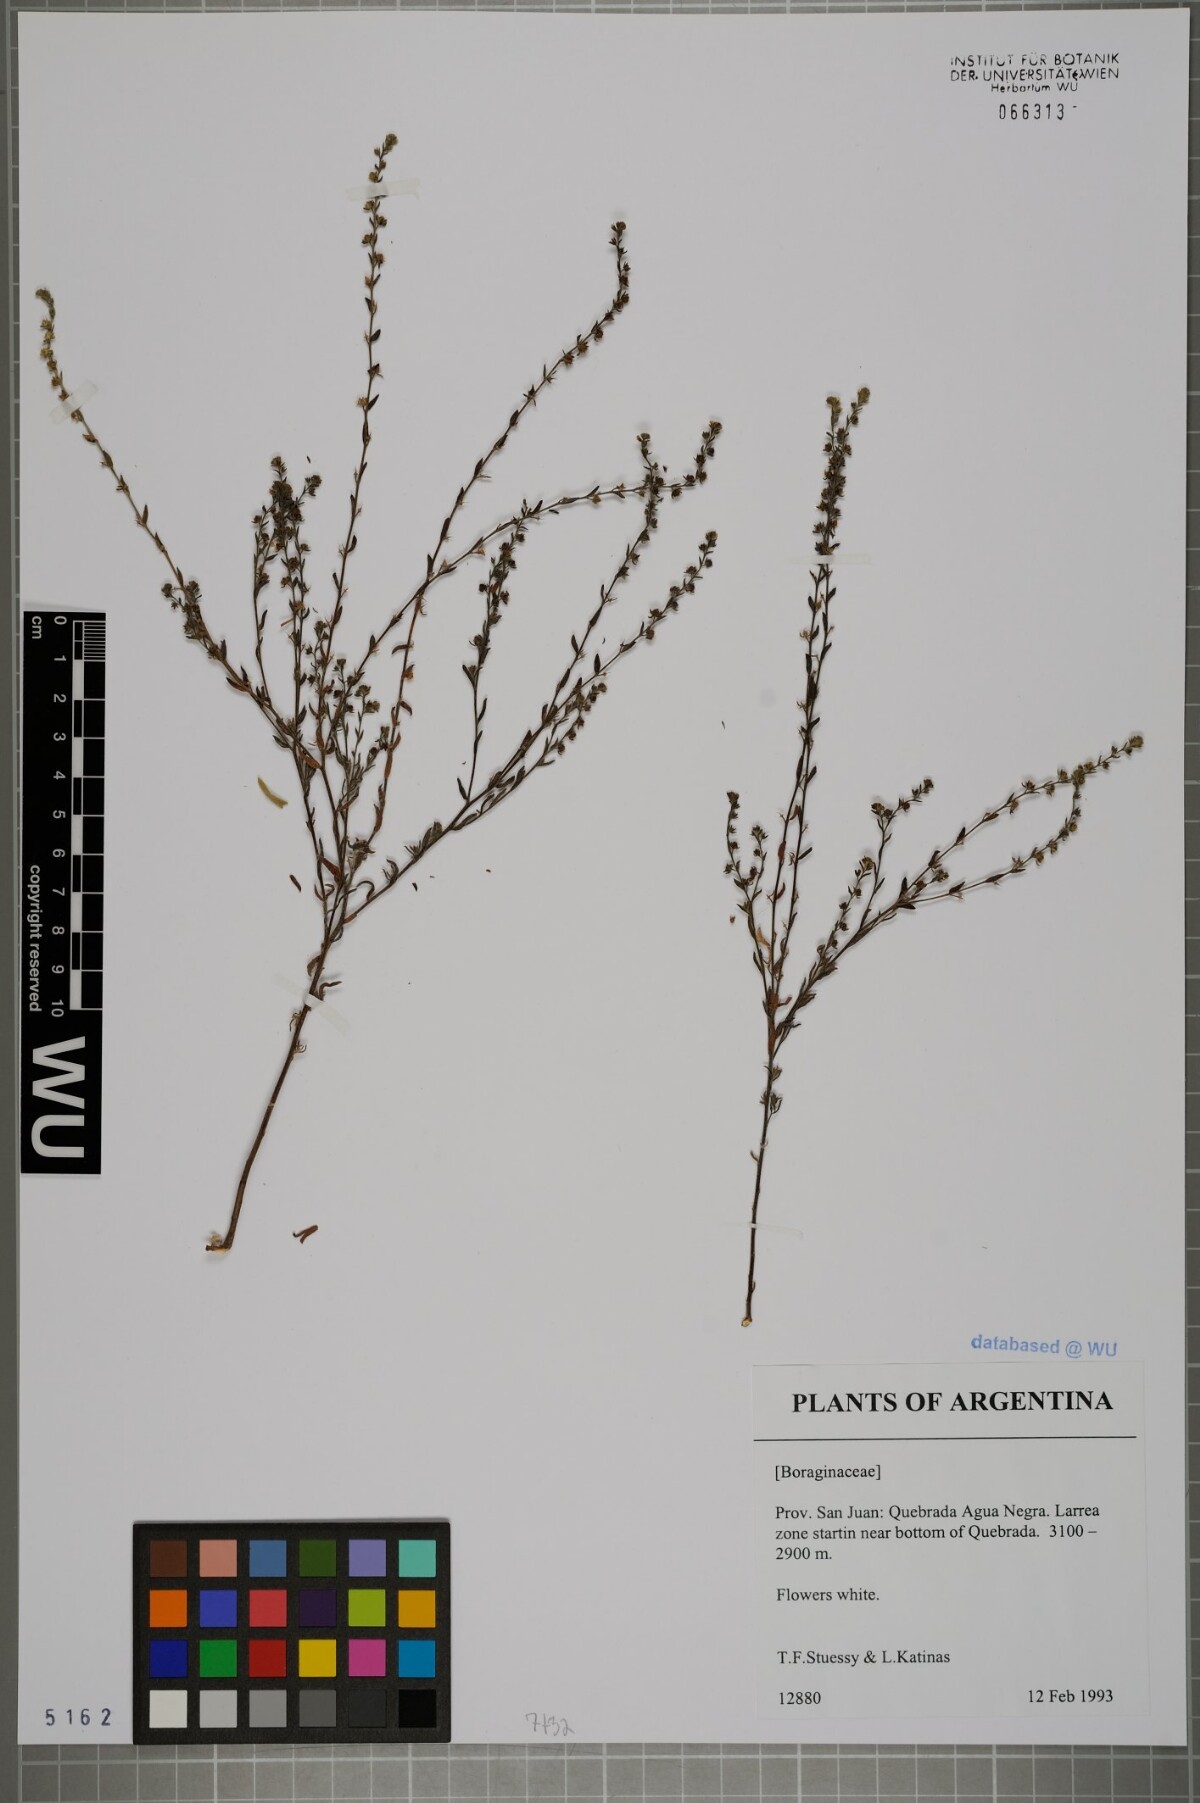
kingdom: Plantae
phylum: Tracheophyta
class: Magnoliopsida
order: Boraginales
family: Boraginaceae
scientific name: Boraginaceae
